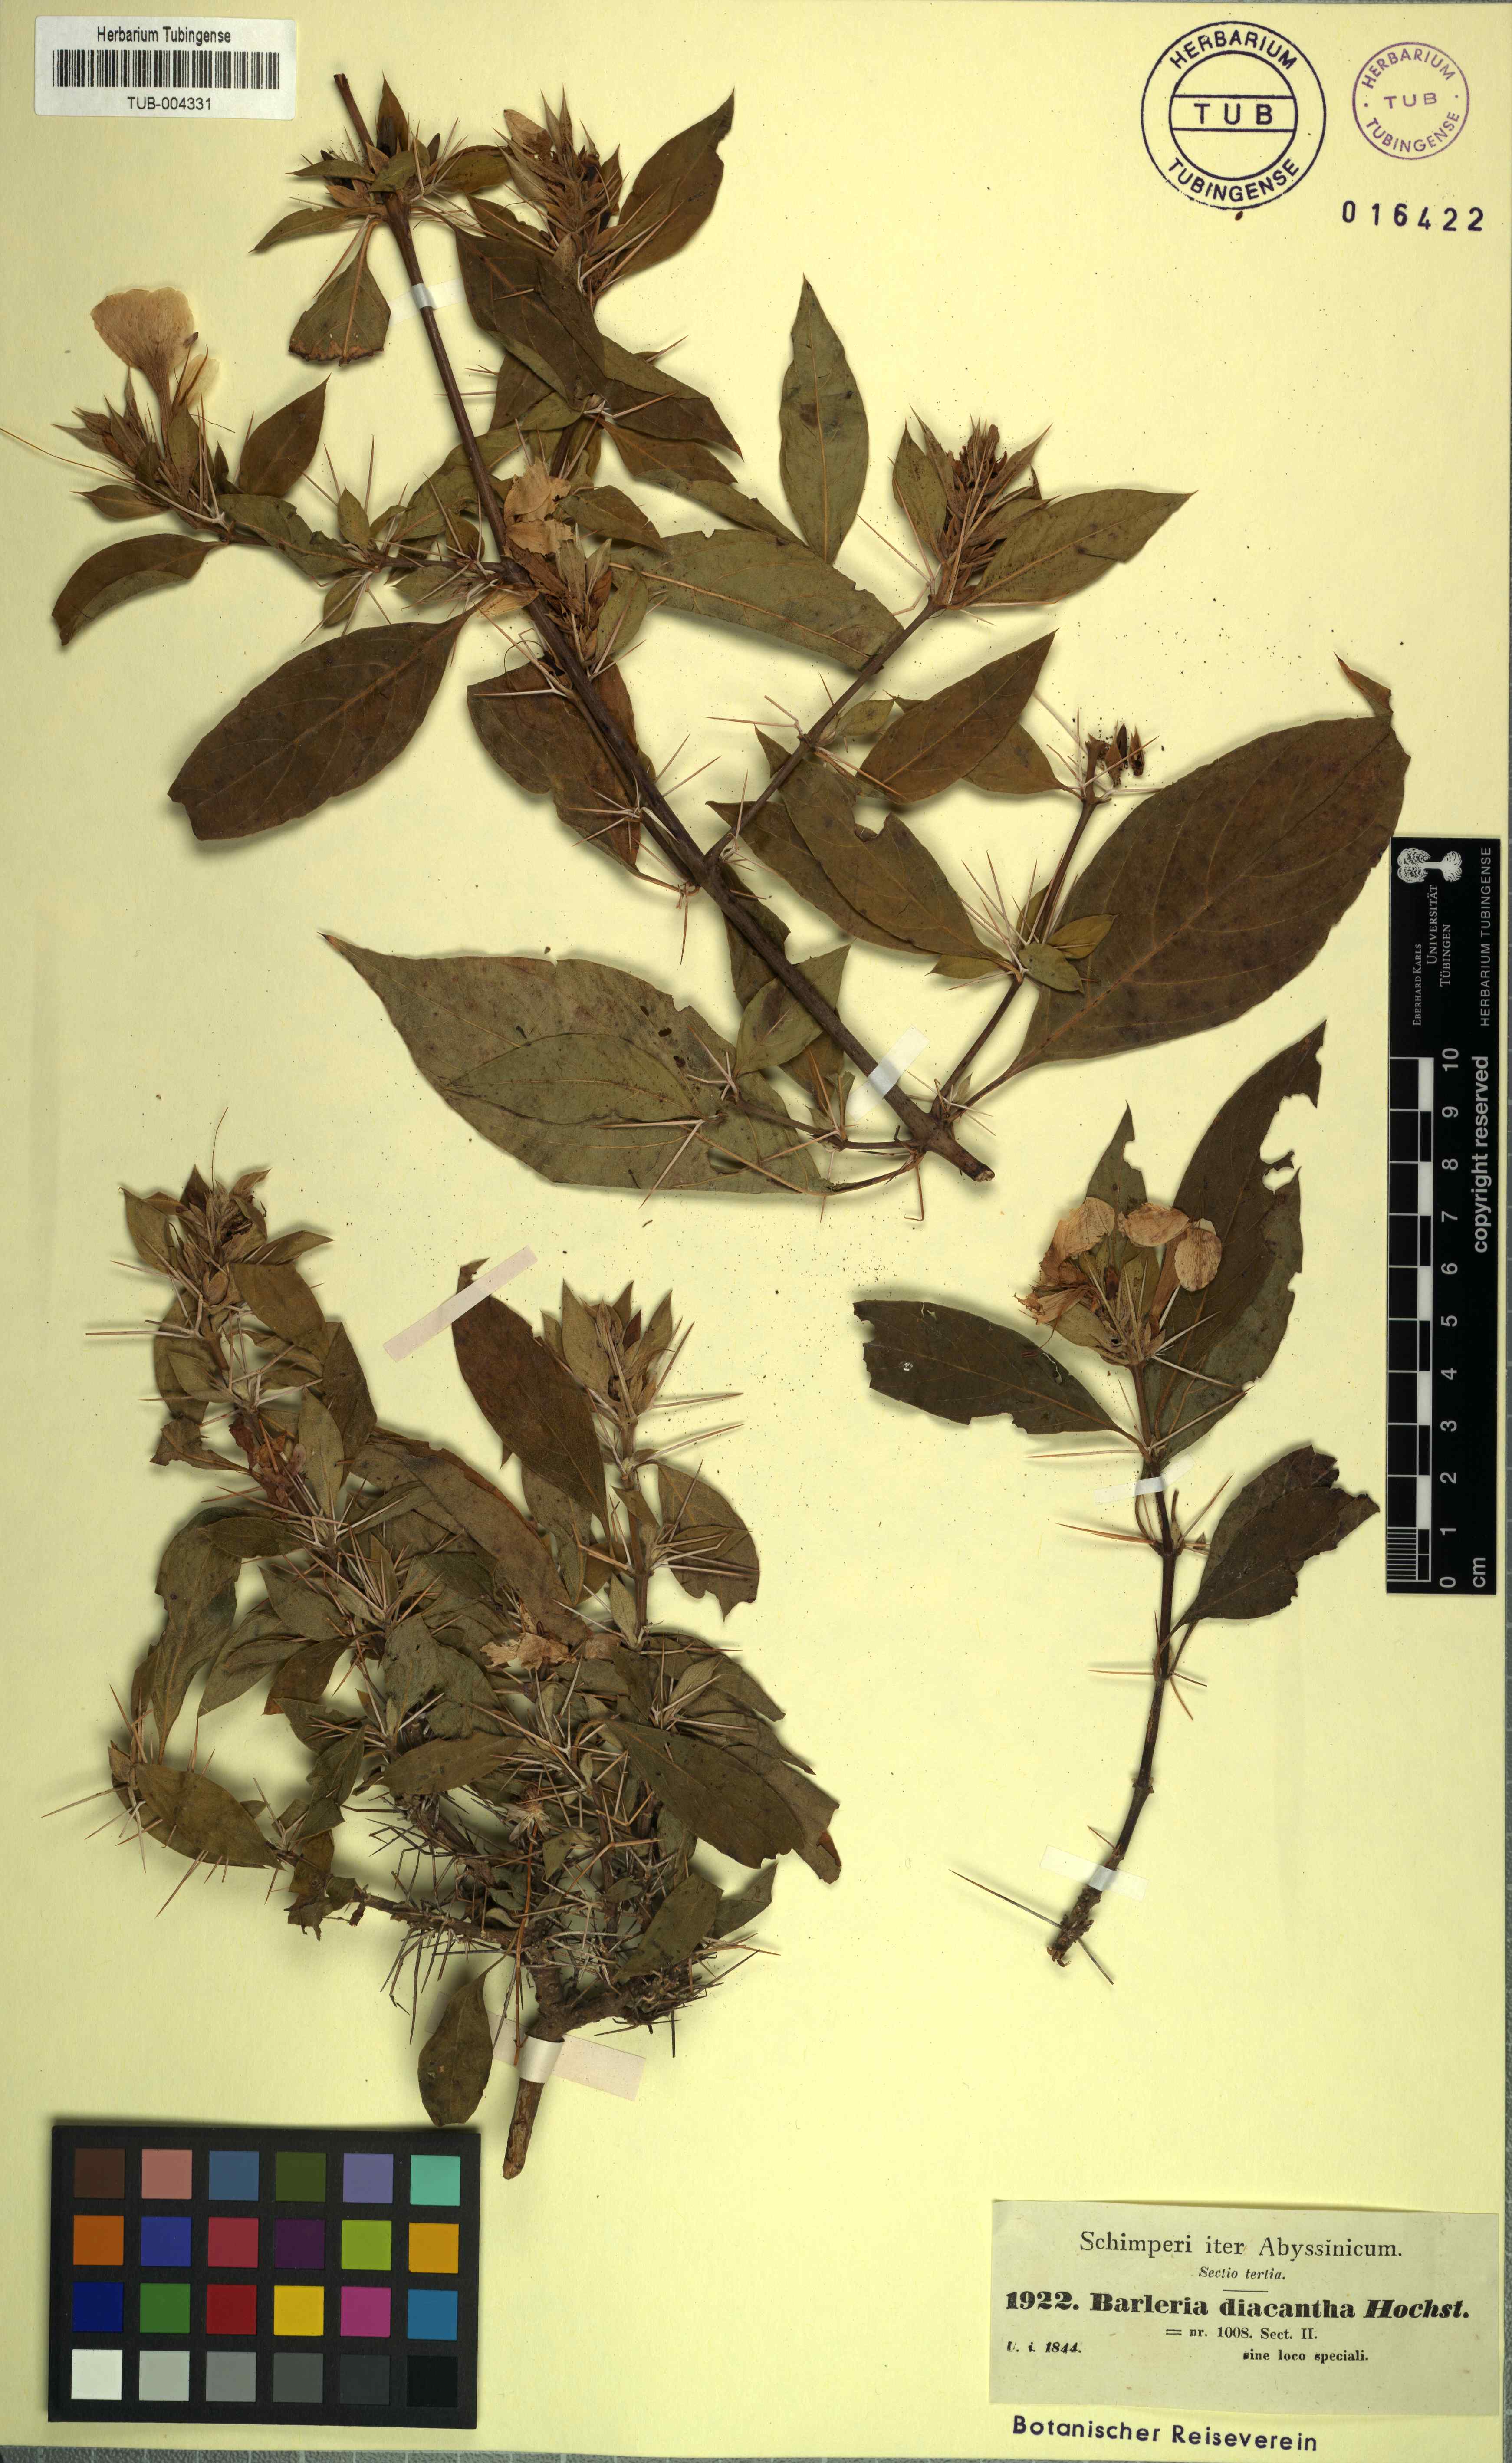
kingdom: Plantae
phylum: Tracheophyta
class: Magnoliopsida
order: Lamiales
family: Acanthaceae
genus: Barleria
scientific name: Barleria prionitis
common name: Barleria
